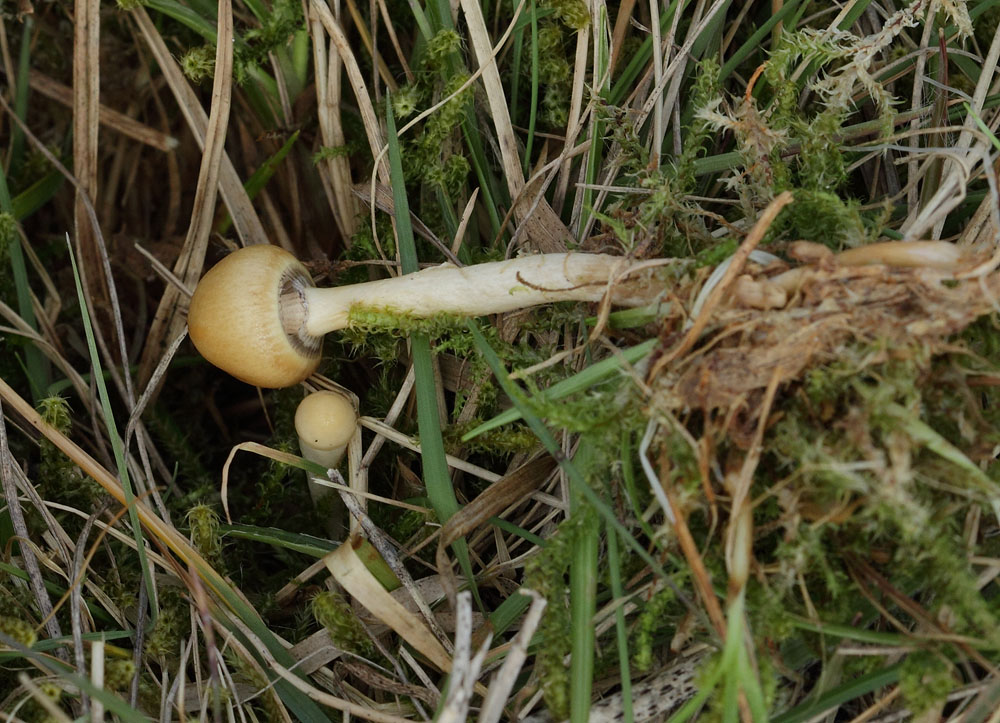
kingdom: Fungi
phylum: Basidiomycota
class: Agaricomycetes
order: Agaricales
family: Strophariaceae
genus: Protostropharia
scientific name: Protostropharia semiglobata
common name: halvkugleformet bredblad
